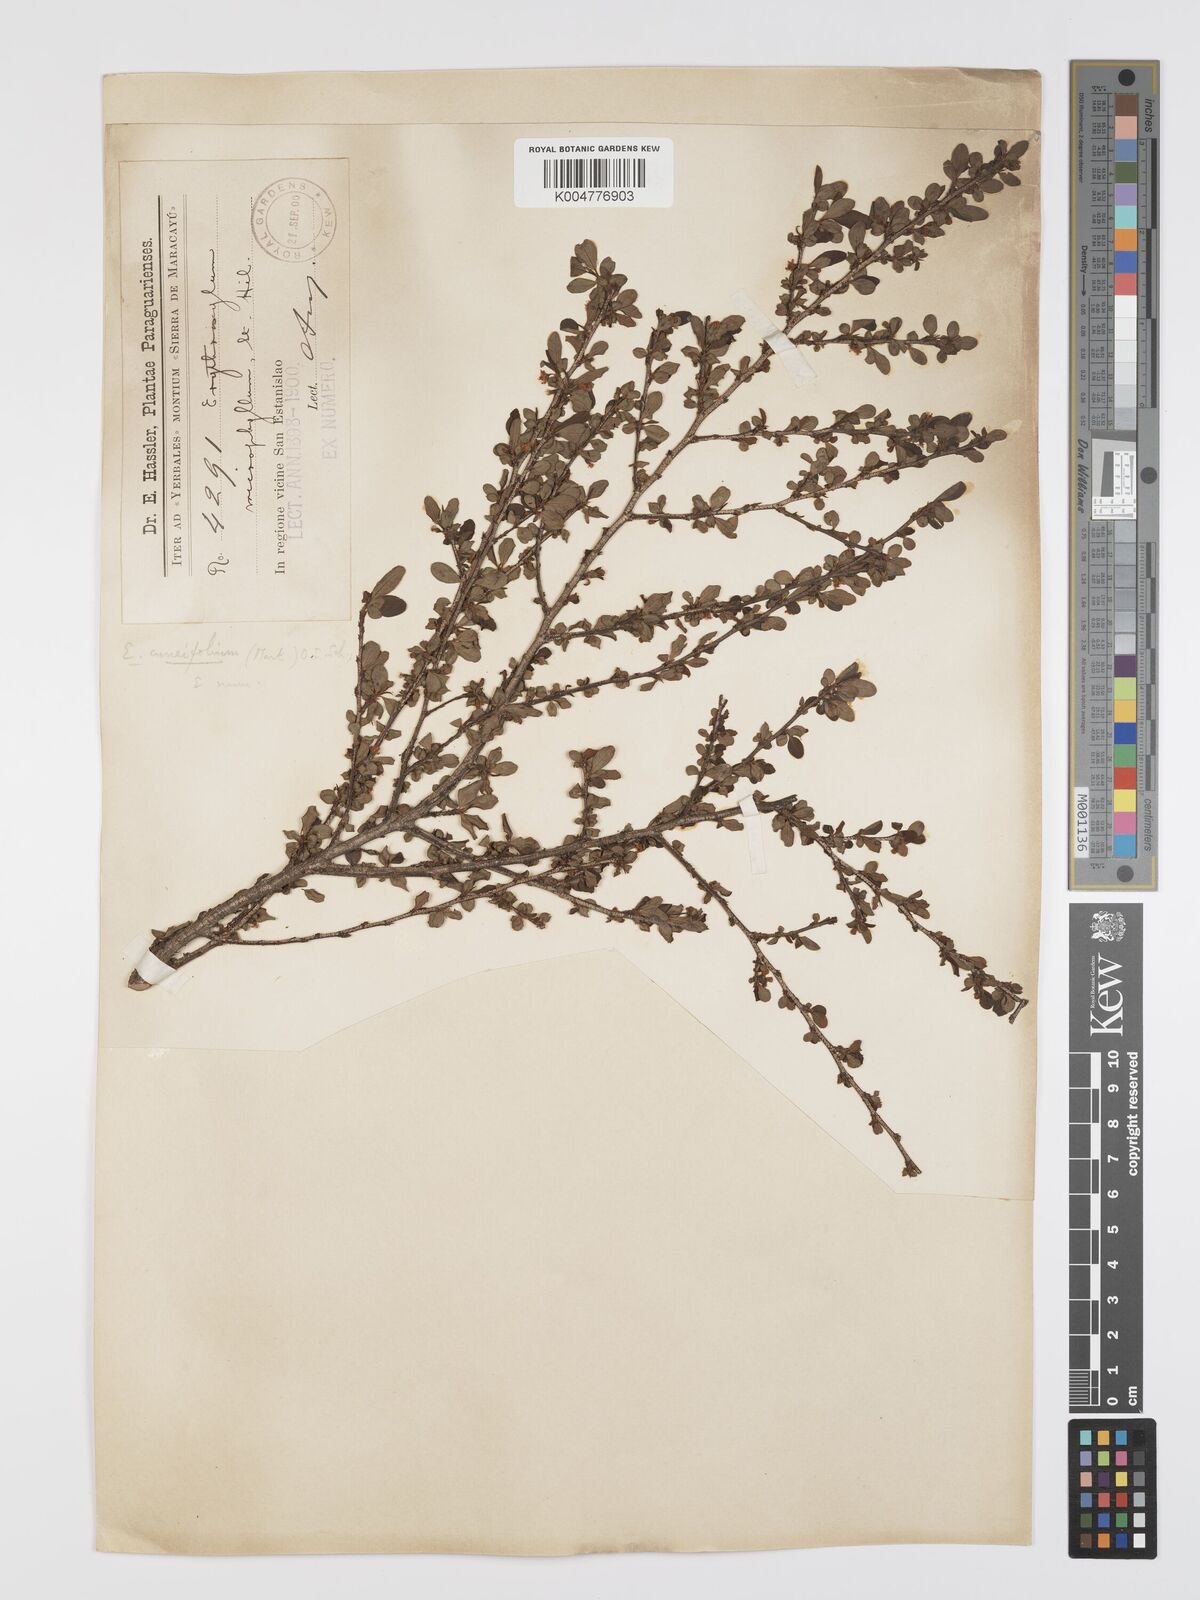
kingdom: Plantae
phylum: Tracheophyta
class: Magnoliopsida
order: Malpighiales
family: Erythroxylaceae
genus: Erythroxylum
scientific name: Erythroxylum cuneifolium
